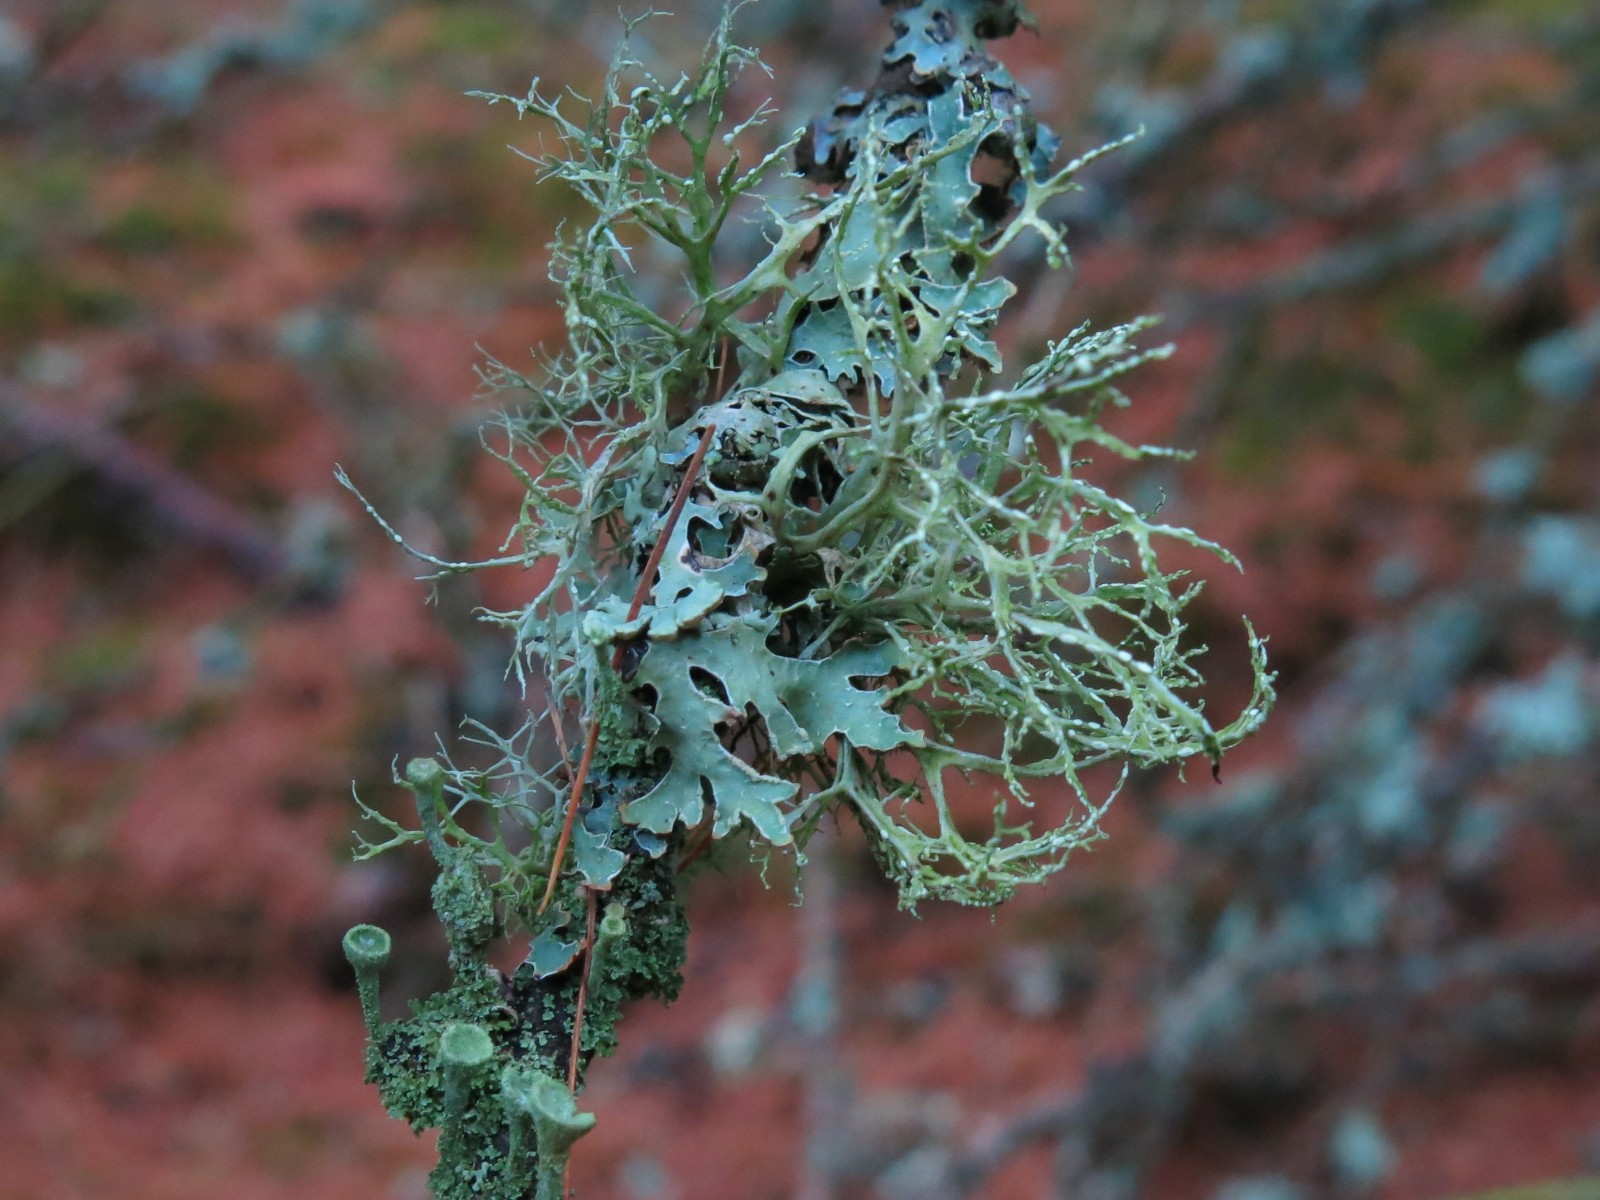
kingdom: Fungi
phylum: Ascomycota
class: Lecanoromycetes
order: Lecanorales
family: Ramalinaceae
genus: Ramalina
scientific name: Ramalina farinacea
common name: melet grenlav
